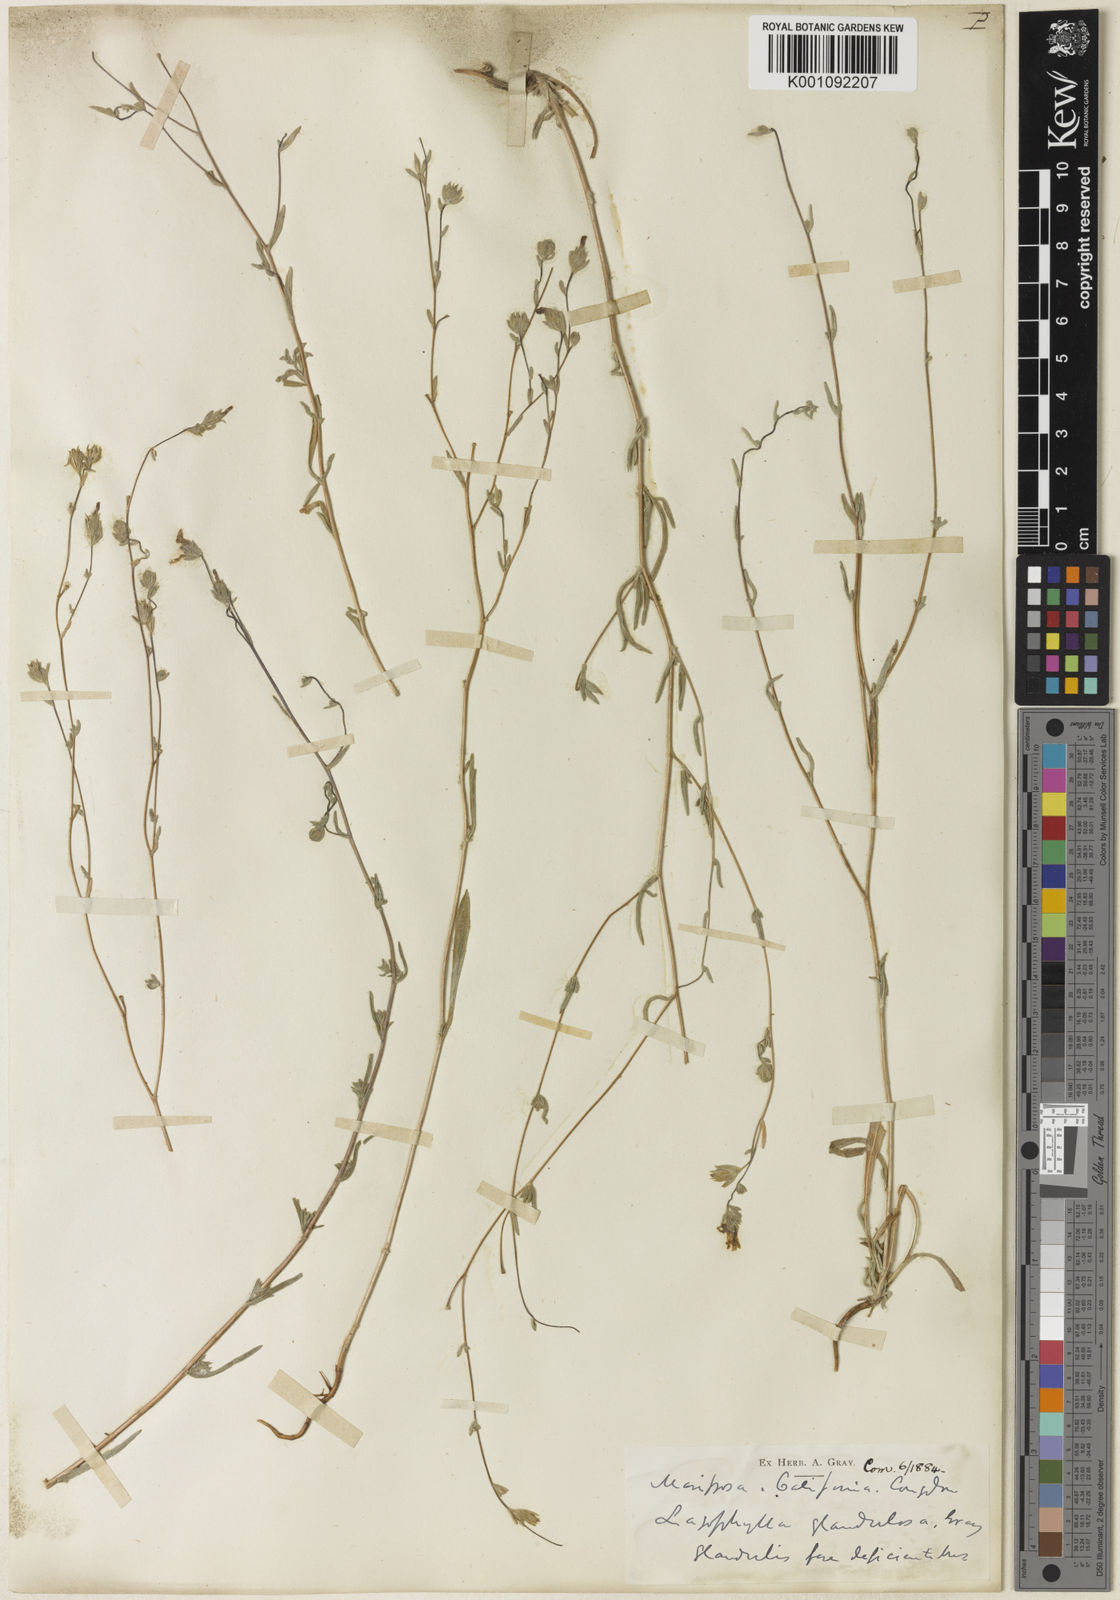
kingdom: Plantae
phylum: Tracheophyta
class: Magnoliopsida
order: Asterales
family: Asteraceae
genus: Lagophylla
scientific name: Lagophylla glandulosa
